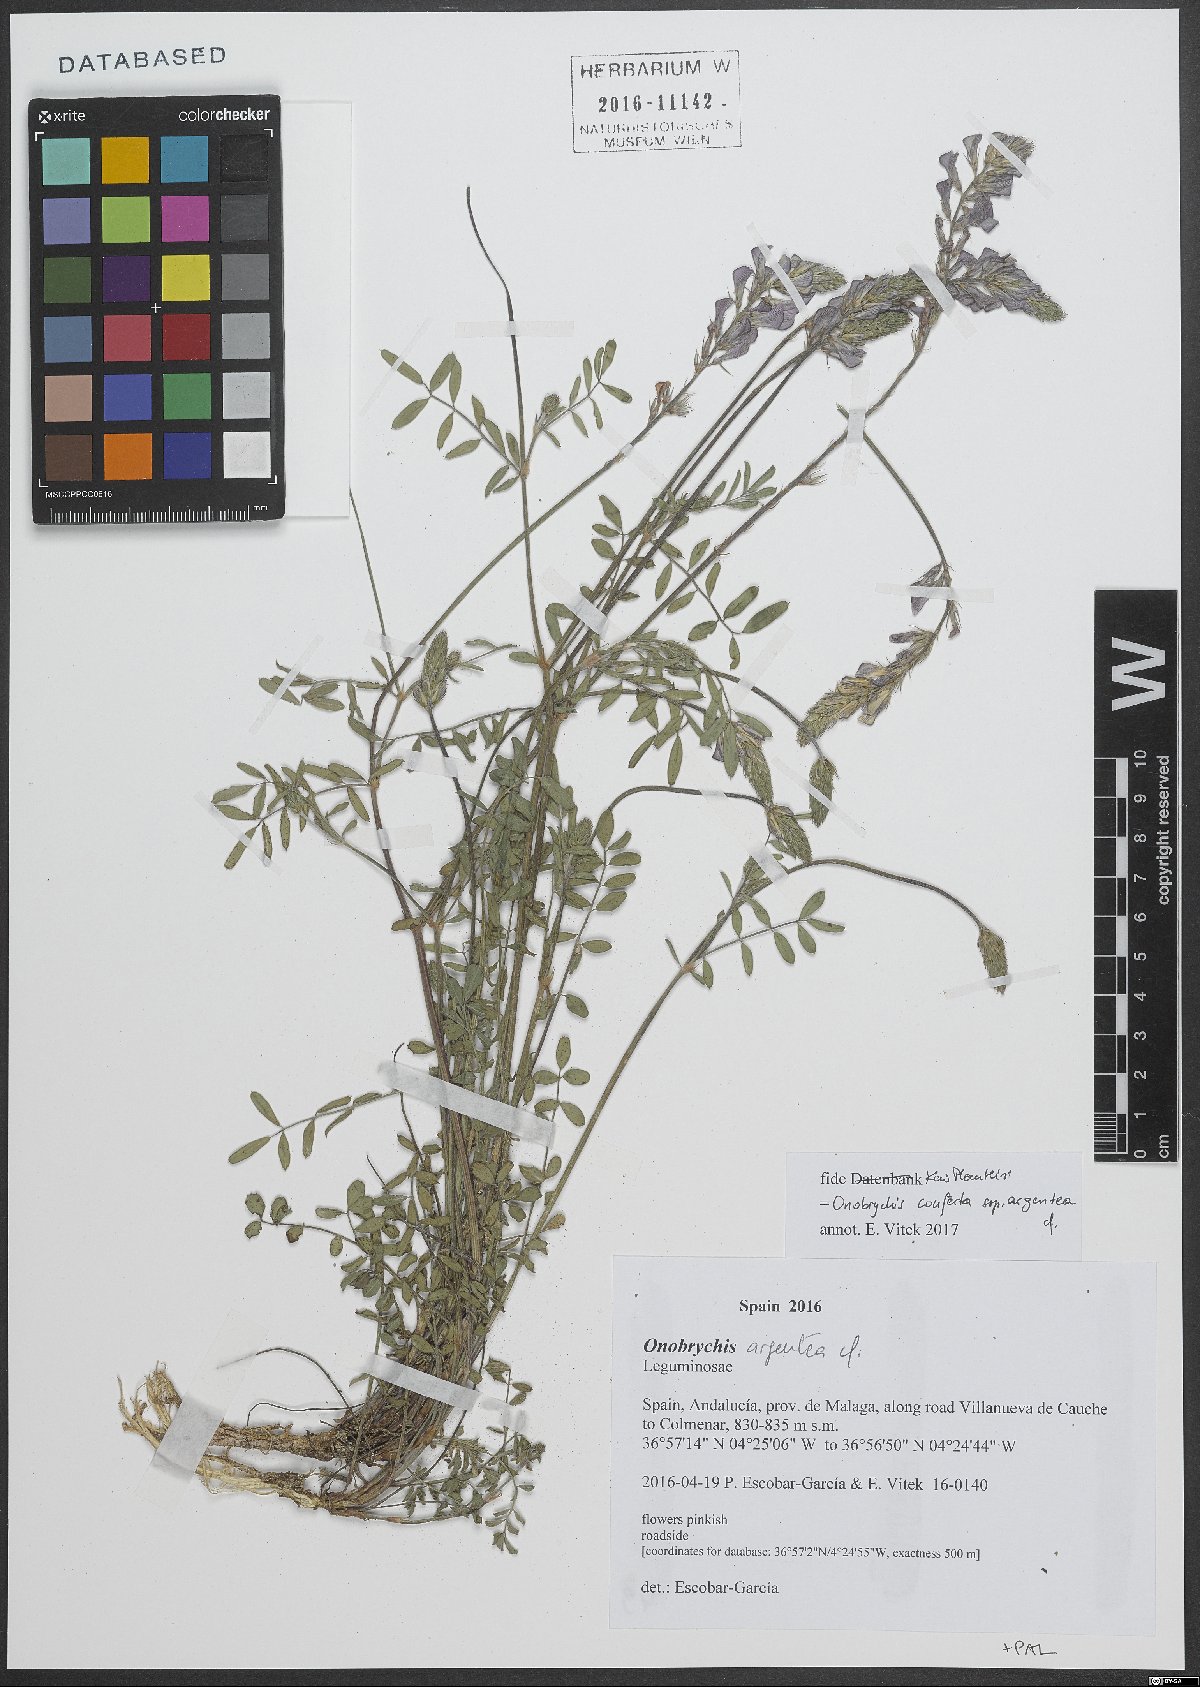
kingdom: Plantae
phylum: Tracheophyta
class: Magnoliopsida
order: Fabales
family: Fabaceae
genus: Onobrychis
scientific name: Onobrychis argentea
